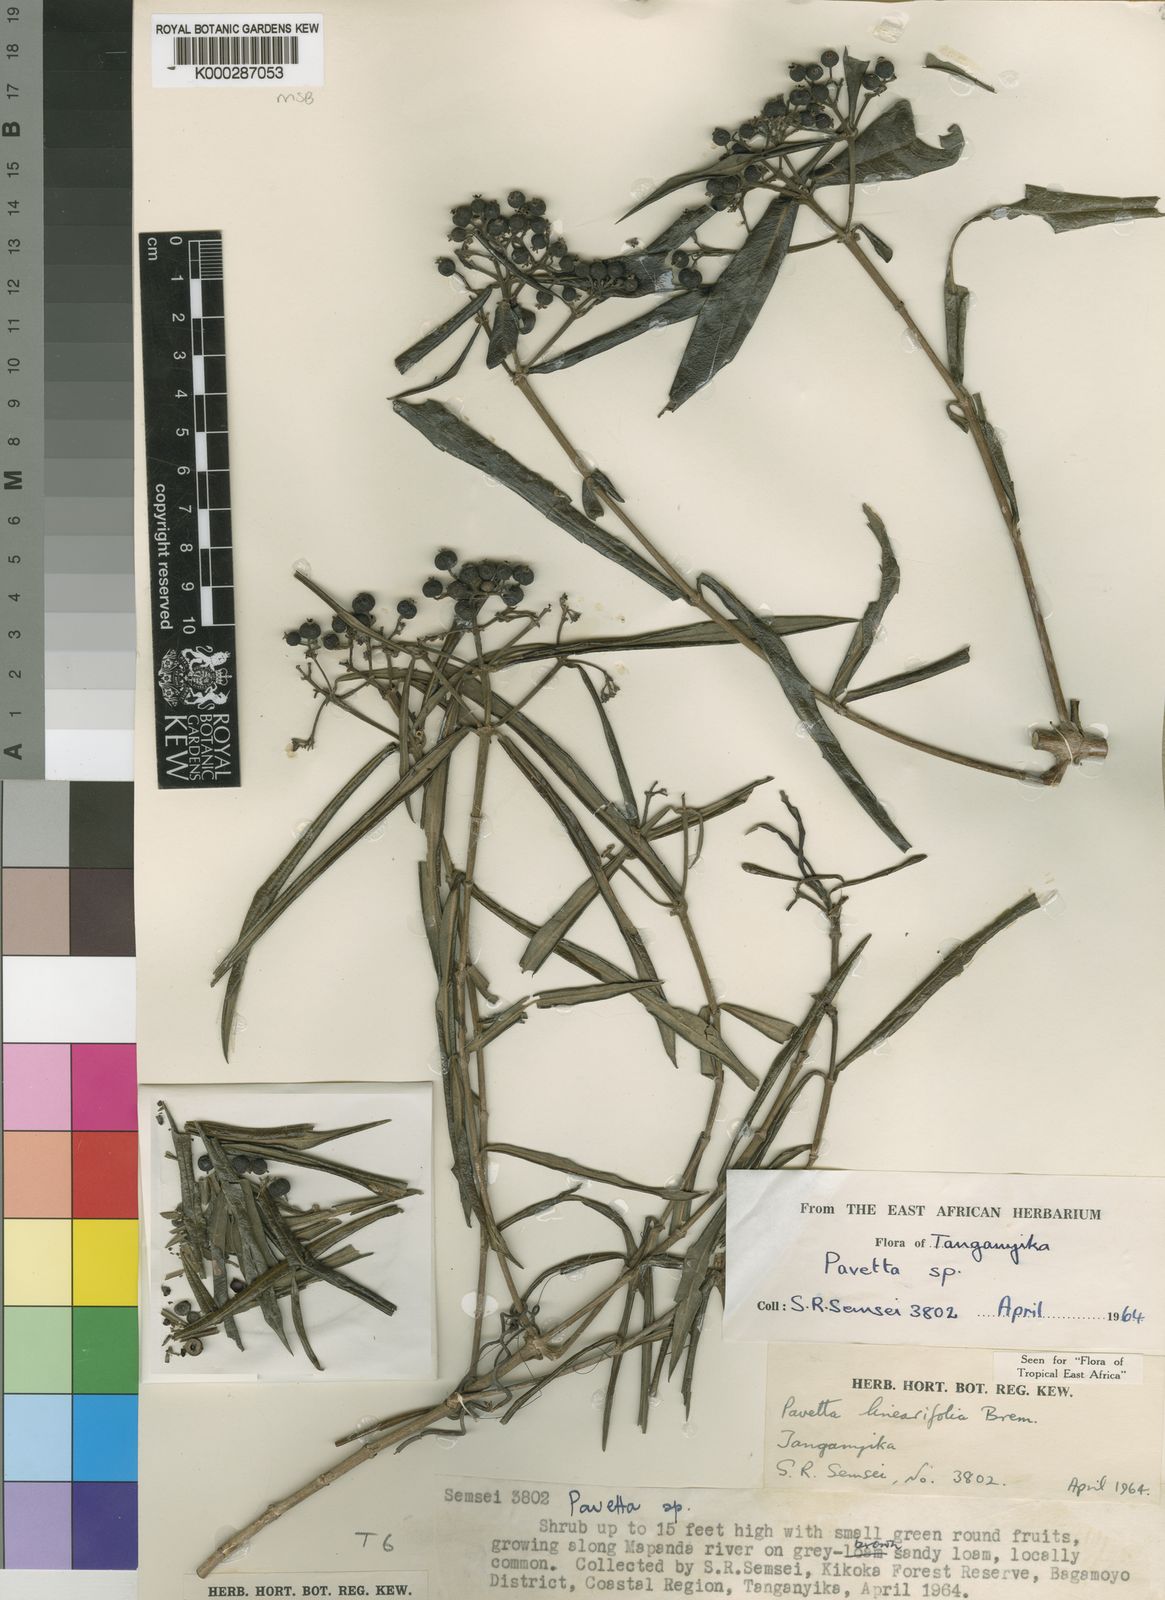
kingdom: Plantae
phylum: Tracheophyta
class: Magnoliopsida
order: Gentianales
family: Rubiaceae
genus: Pavetta
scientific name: Pavetta linearifolia
